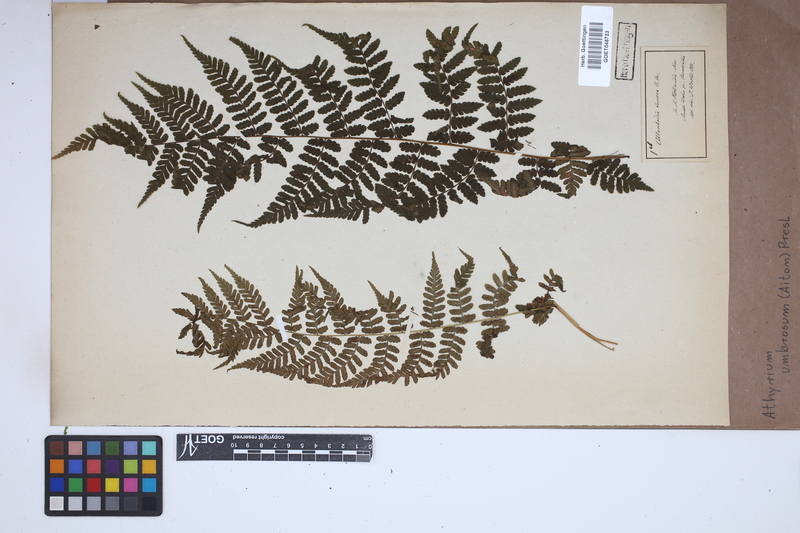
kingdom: Plantae
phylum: Tracheophyta
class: Polypodiopsida
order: Polypodiales
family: Athyriaceae
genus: Diplazium
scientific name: Diplazium caudatum
